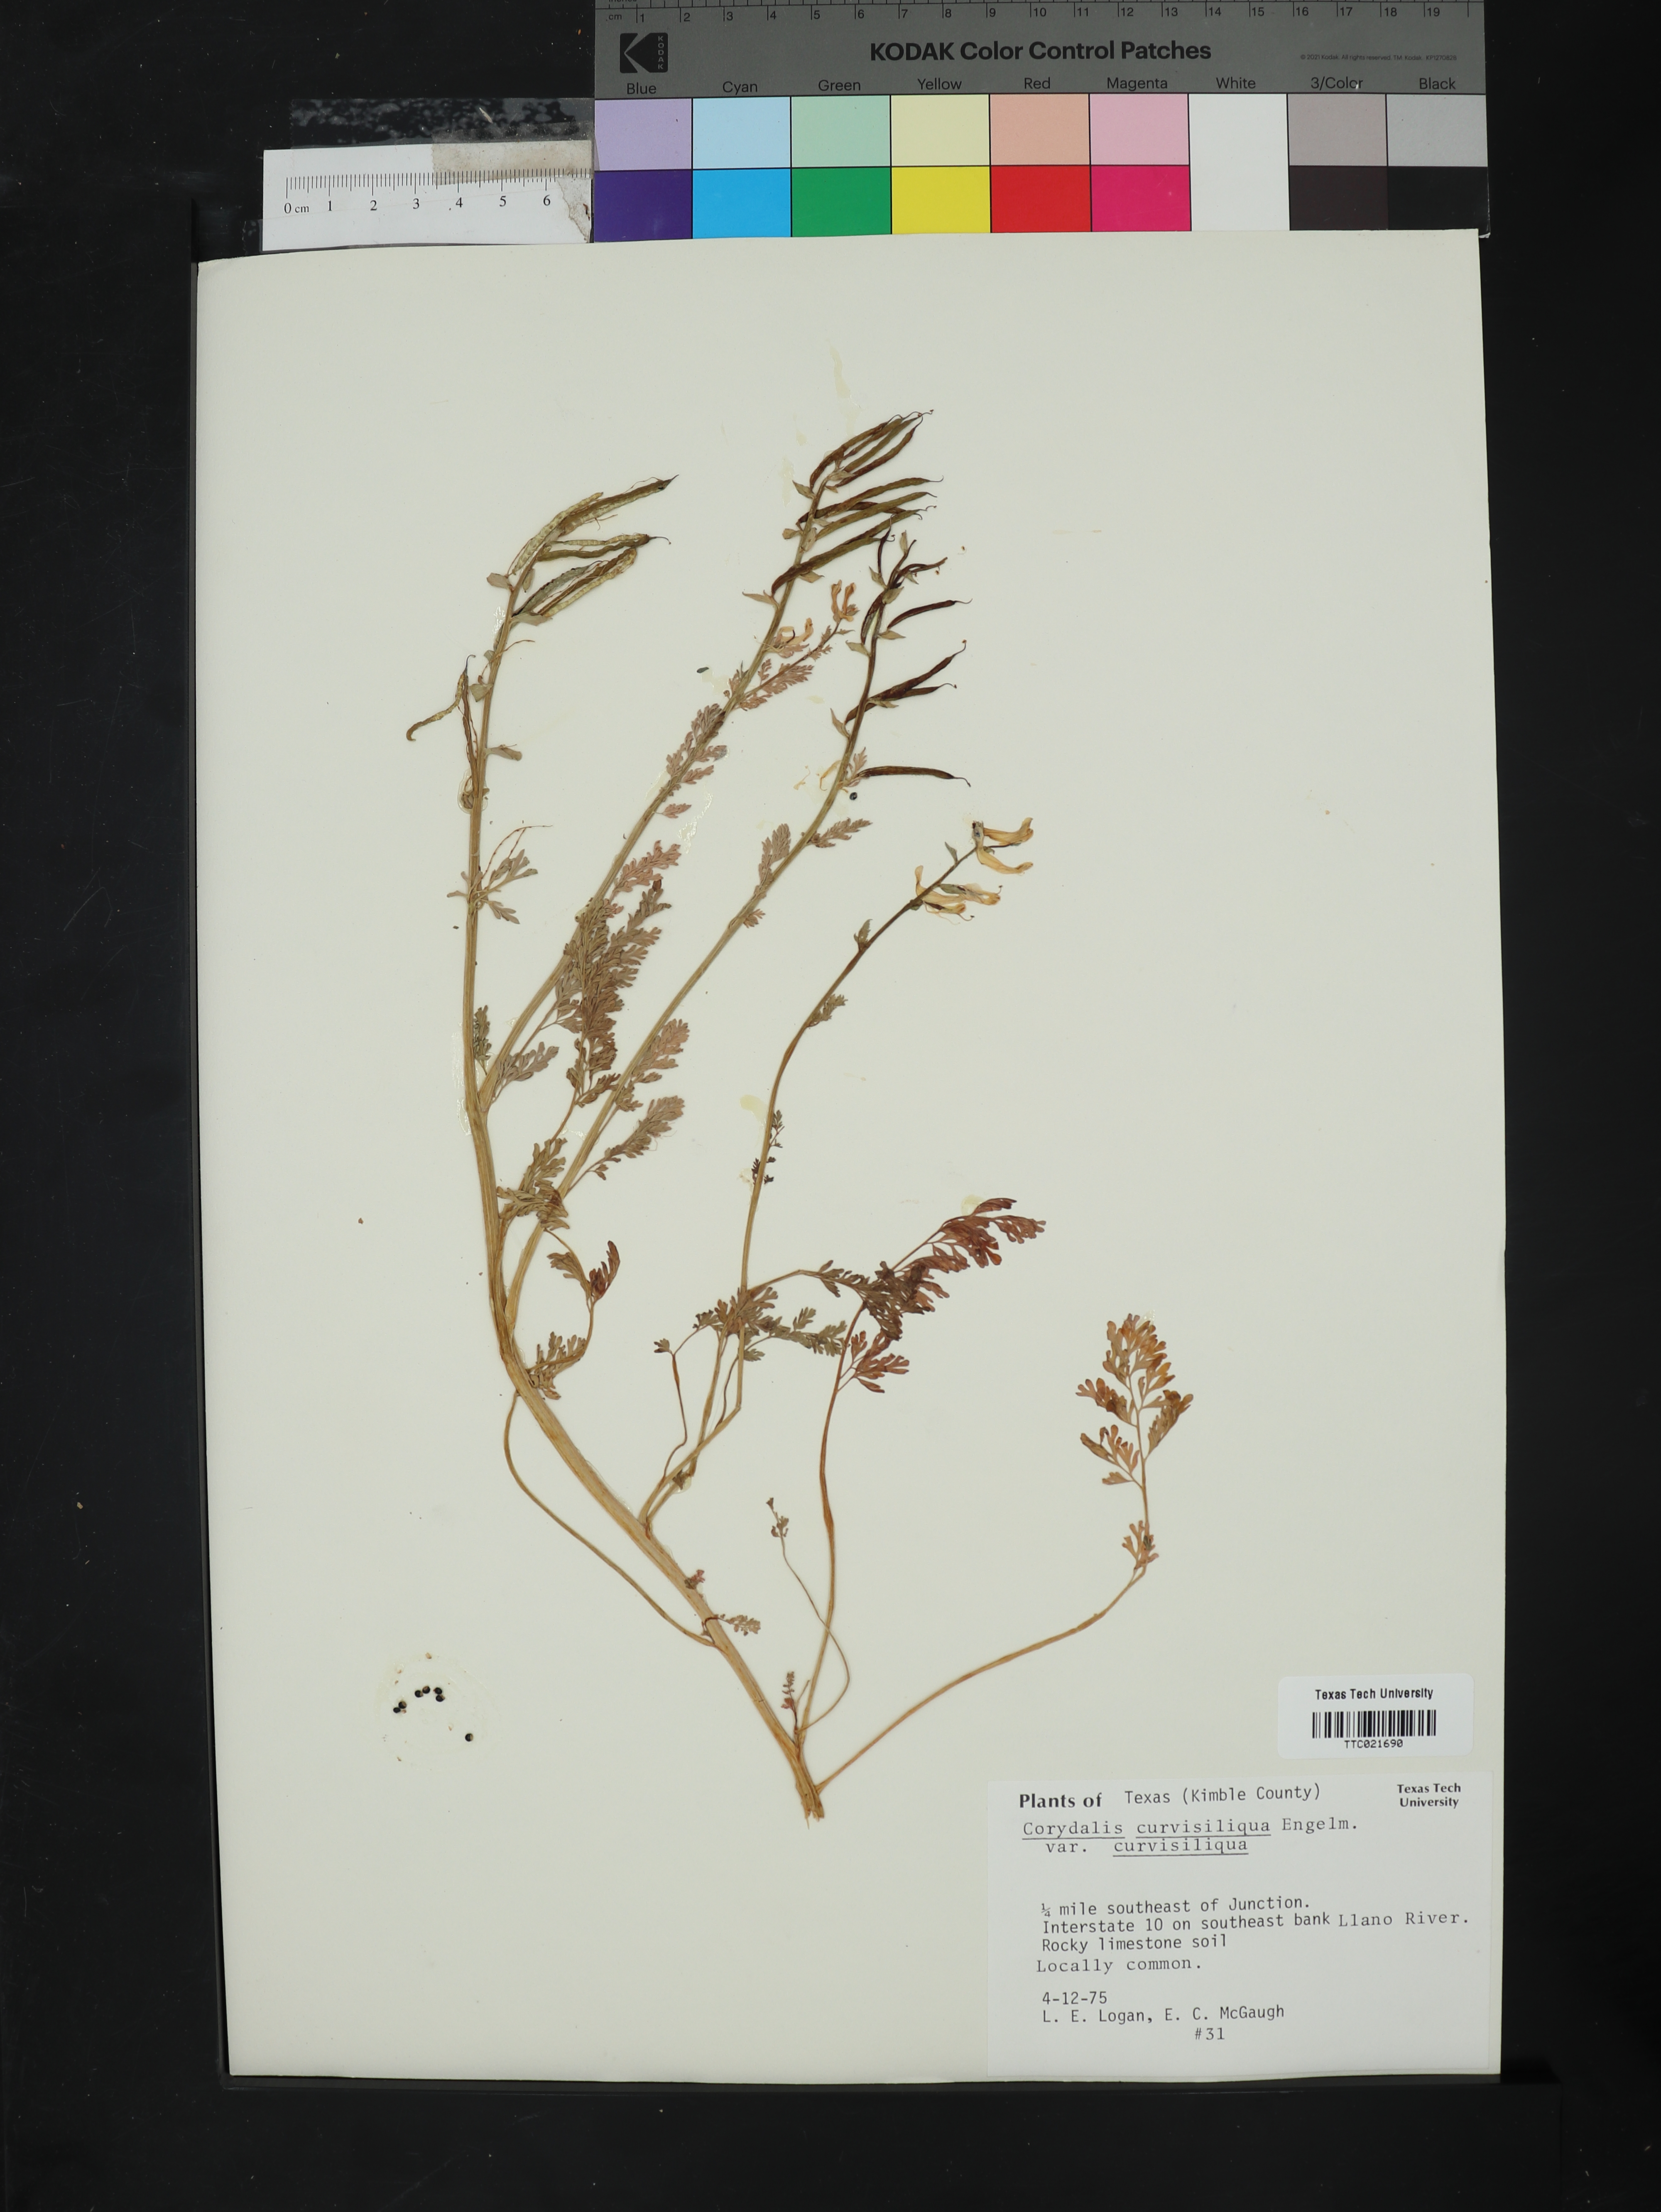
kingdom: Plantae
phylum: Tracheophyta
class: Magnoliopsida
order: Ranunculales
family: Papaveraceae
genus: Corydalis
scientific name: Corydalis curvisiliqua
